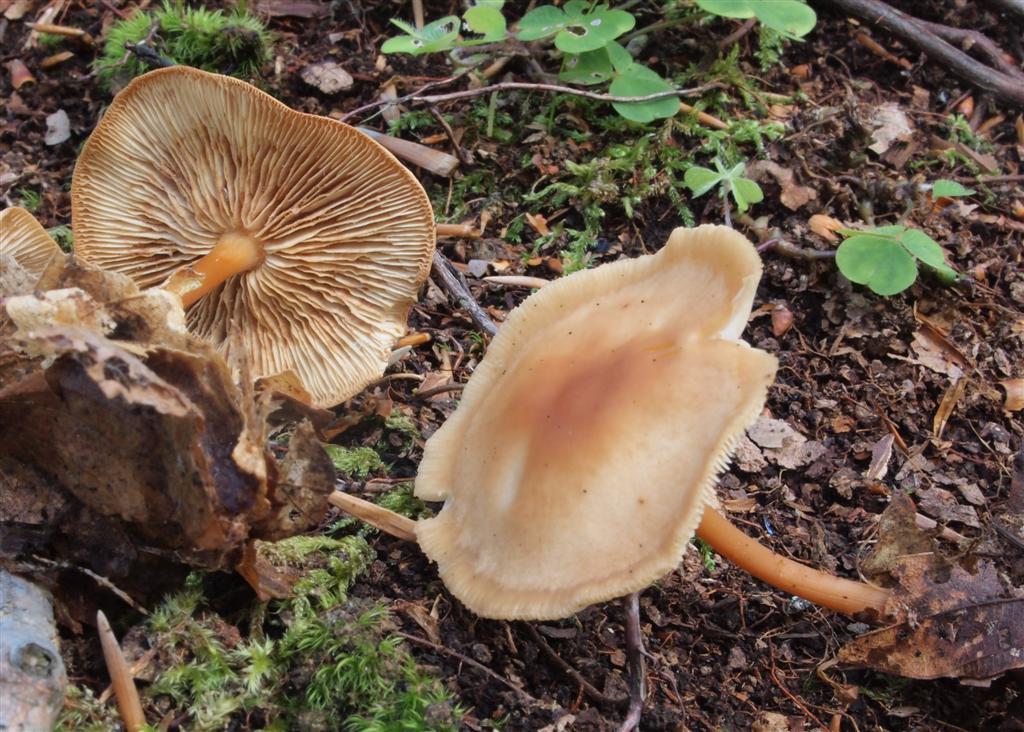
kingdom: Fungi
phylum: Basidiomycota
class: Agaricomycetes
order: Agaricales
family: Omphalotaceae
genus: Gymnopus
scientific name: Gymnopus dryophilus
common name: løv-fladhat
